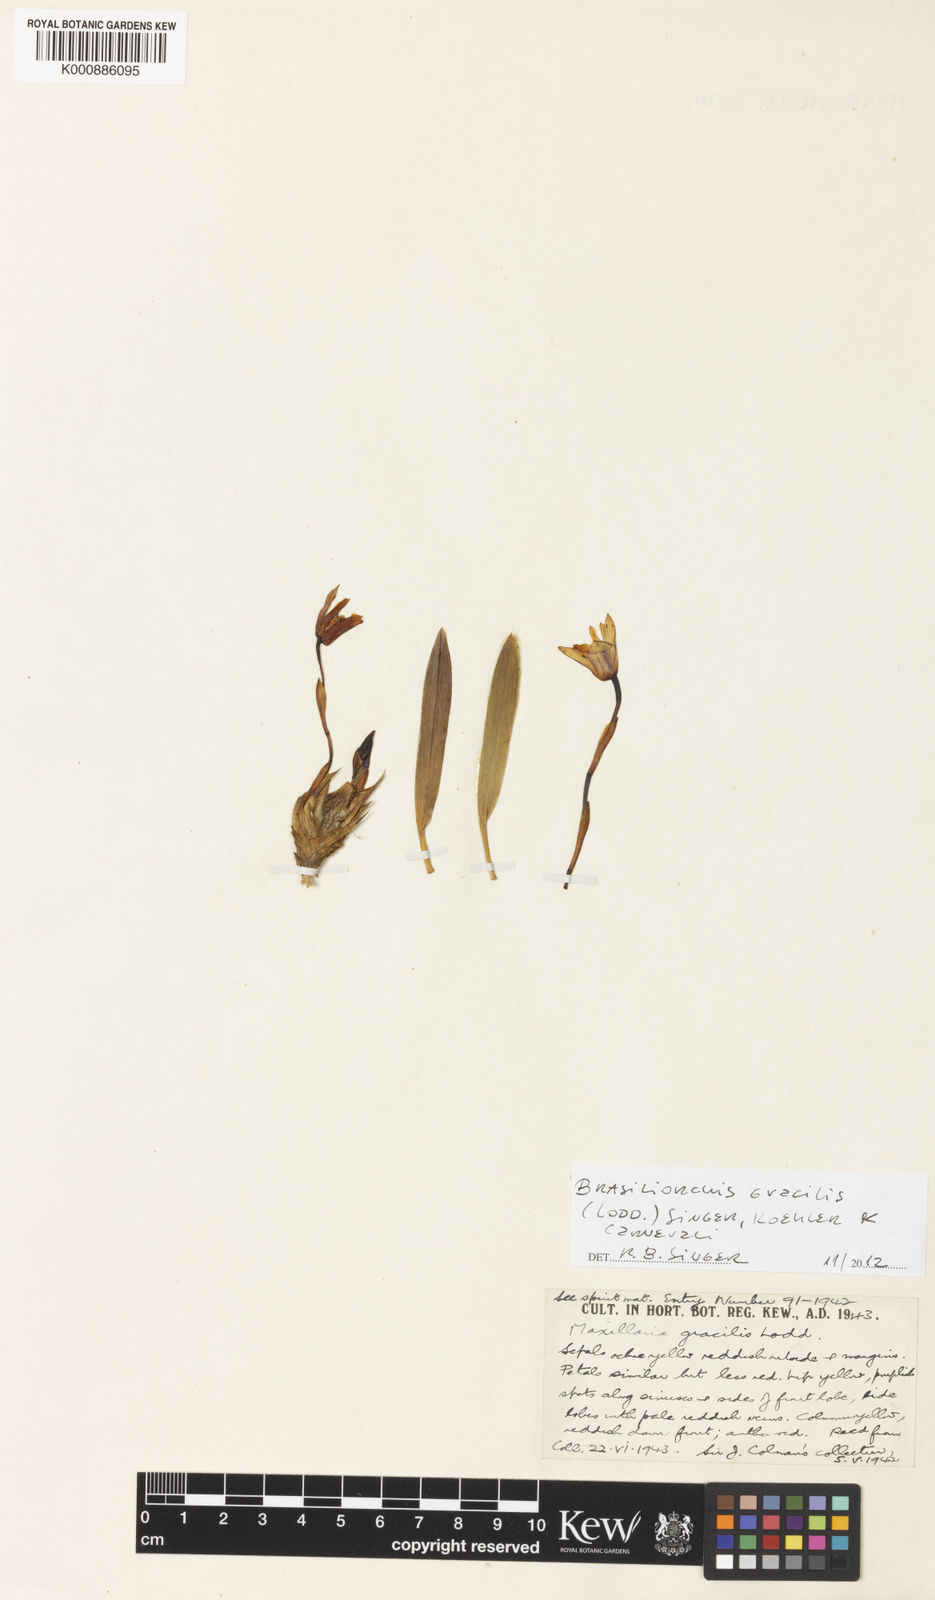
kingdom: Plantae
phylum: Tracheophyta
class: Liliopsida
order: Asparagales
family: Orchidaceae
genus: Maxillaria
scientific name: Maxillaria
